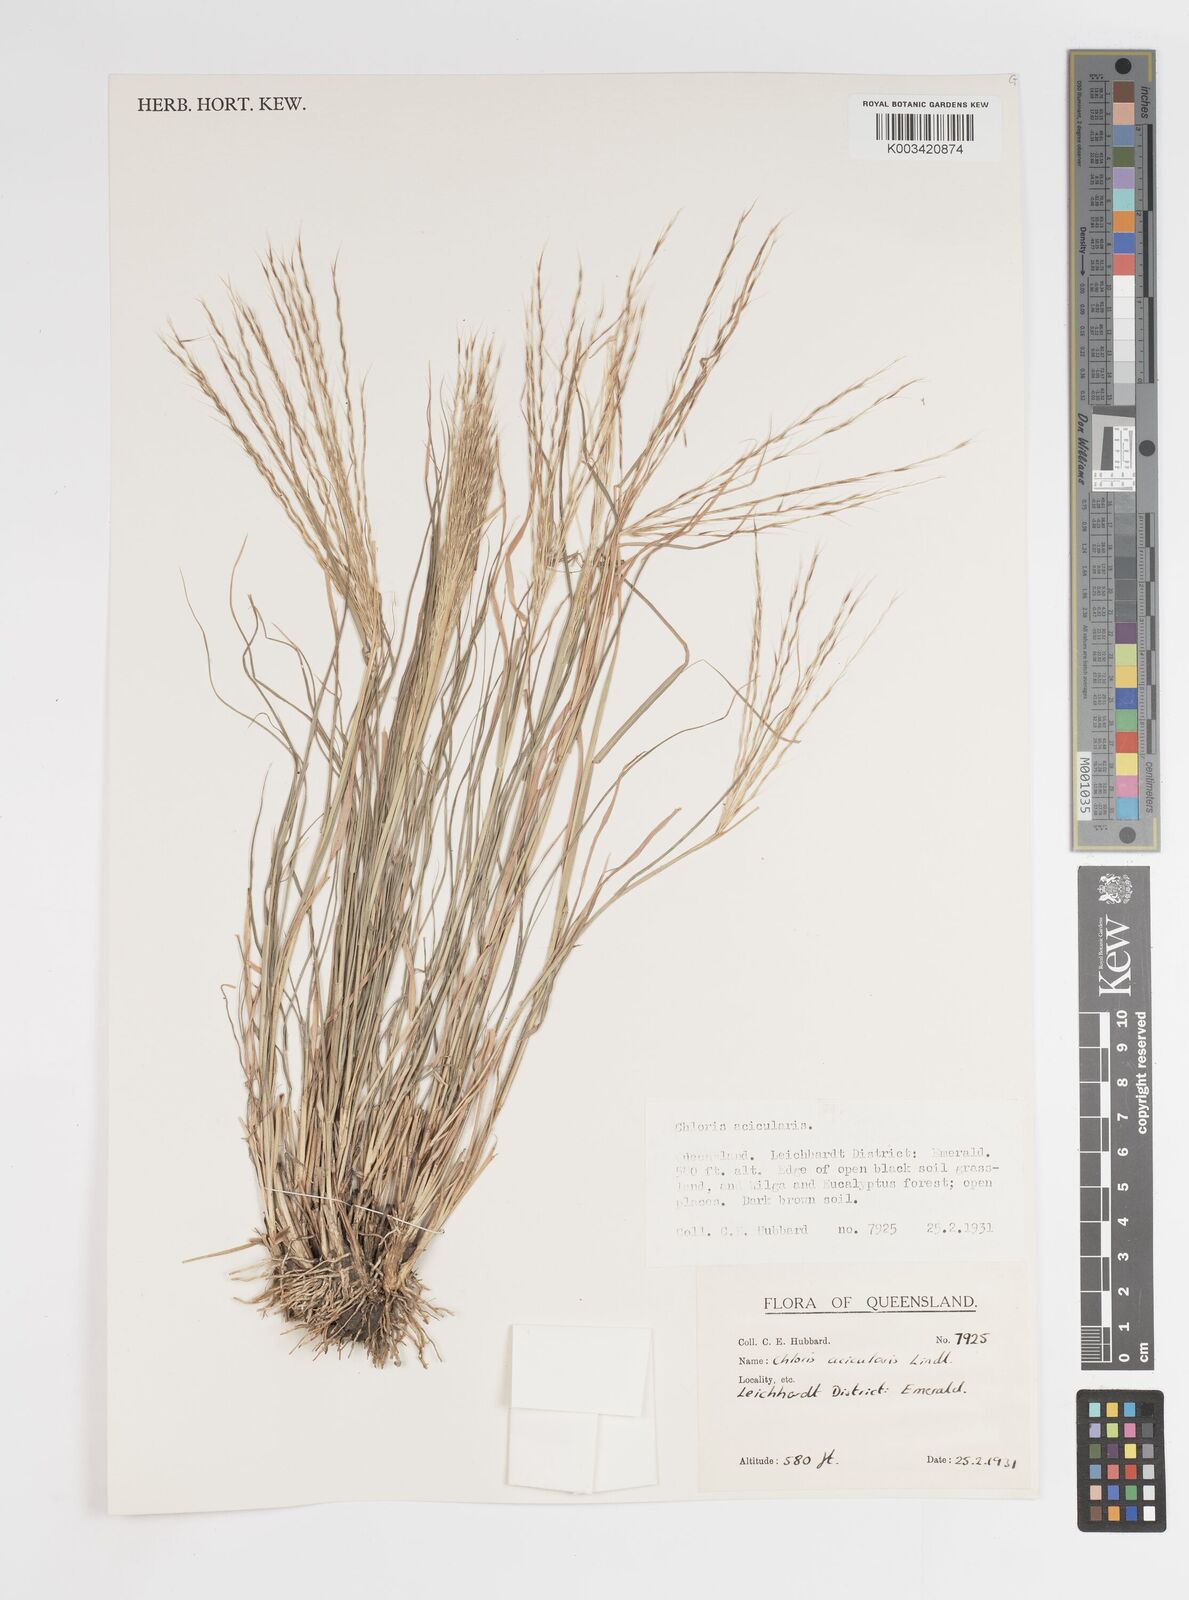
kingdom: Plantae
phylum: Tracheophyta
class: Liliopsida
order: Poales
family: Poaceae
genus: Enteropogon
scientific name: Enteropogon acicularis
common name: Curly windmill grass
